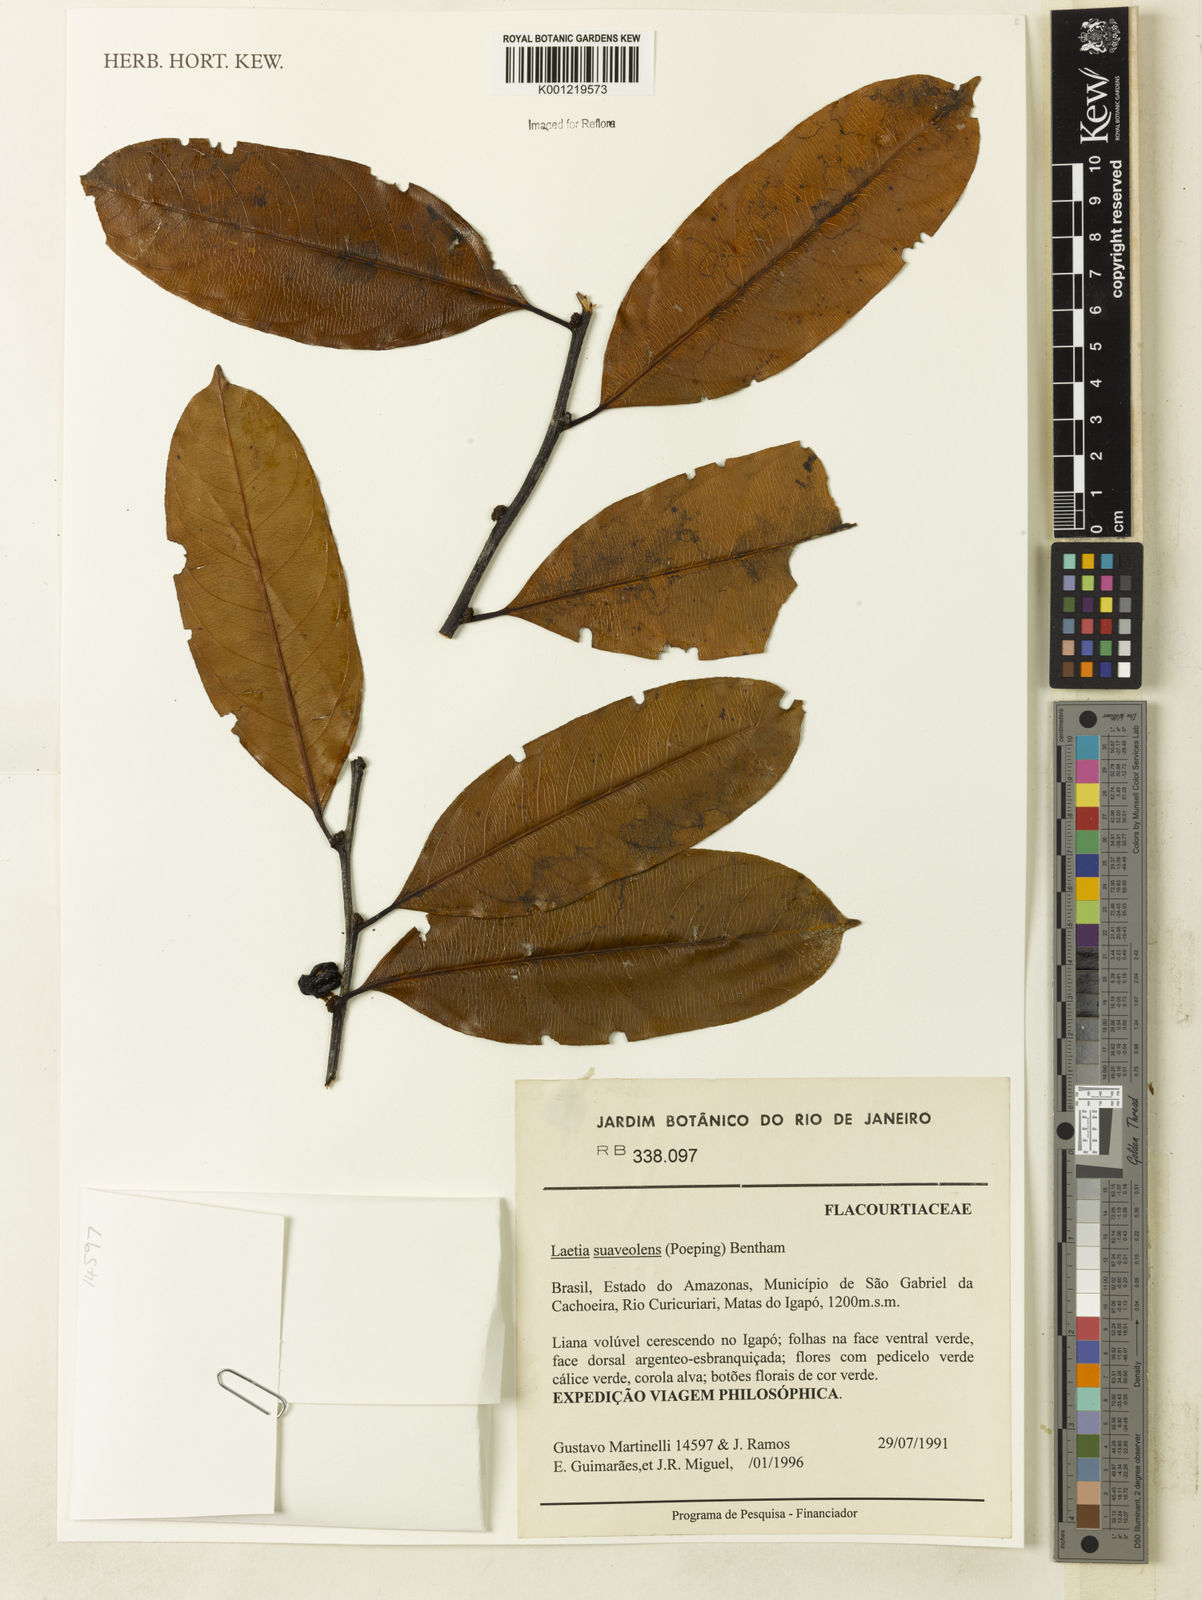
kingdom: Plantae
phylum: Tracheophyta
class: Magnoliopsida
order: Malpighiales
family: Salicaceae
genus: Casearia
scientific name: Casearia suaveolens
